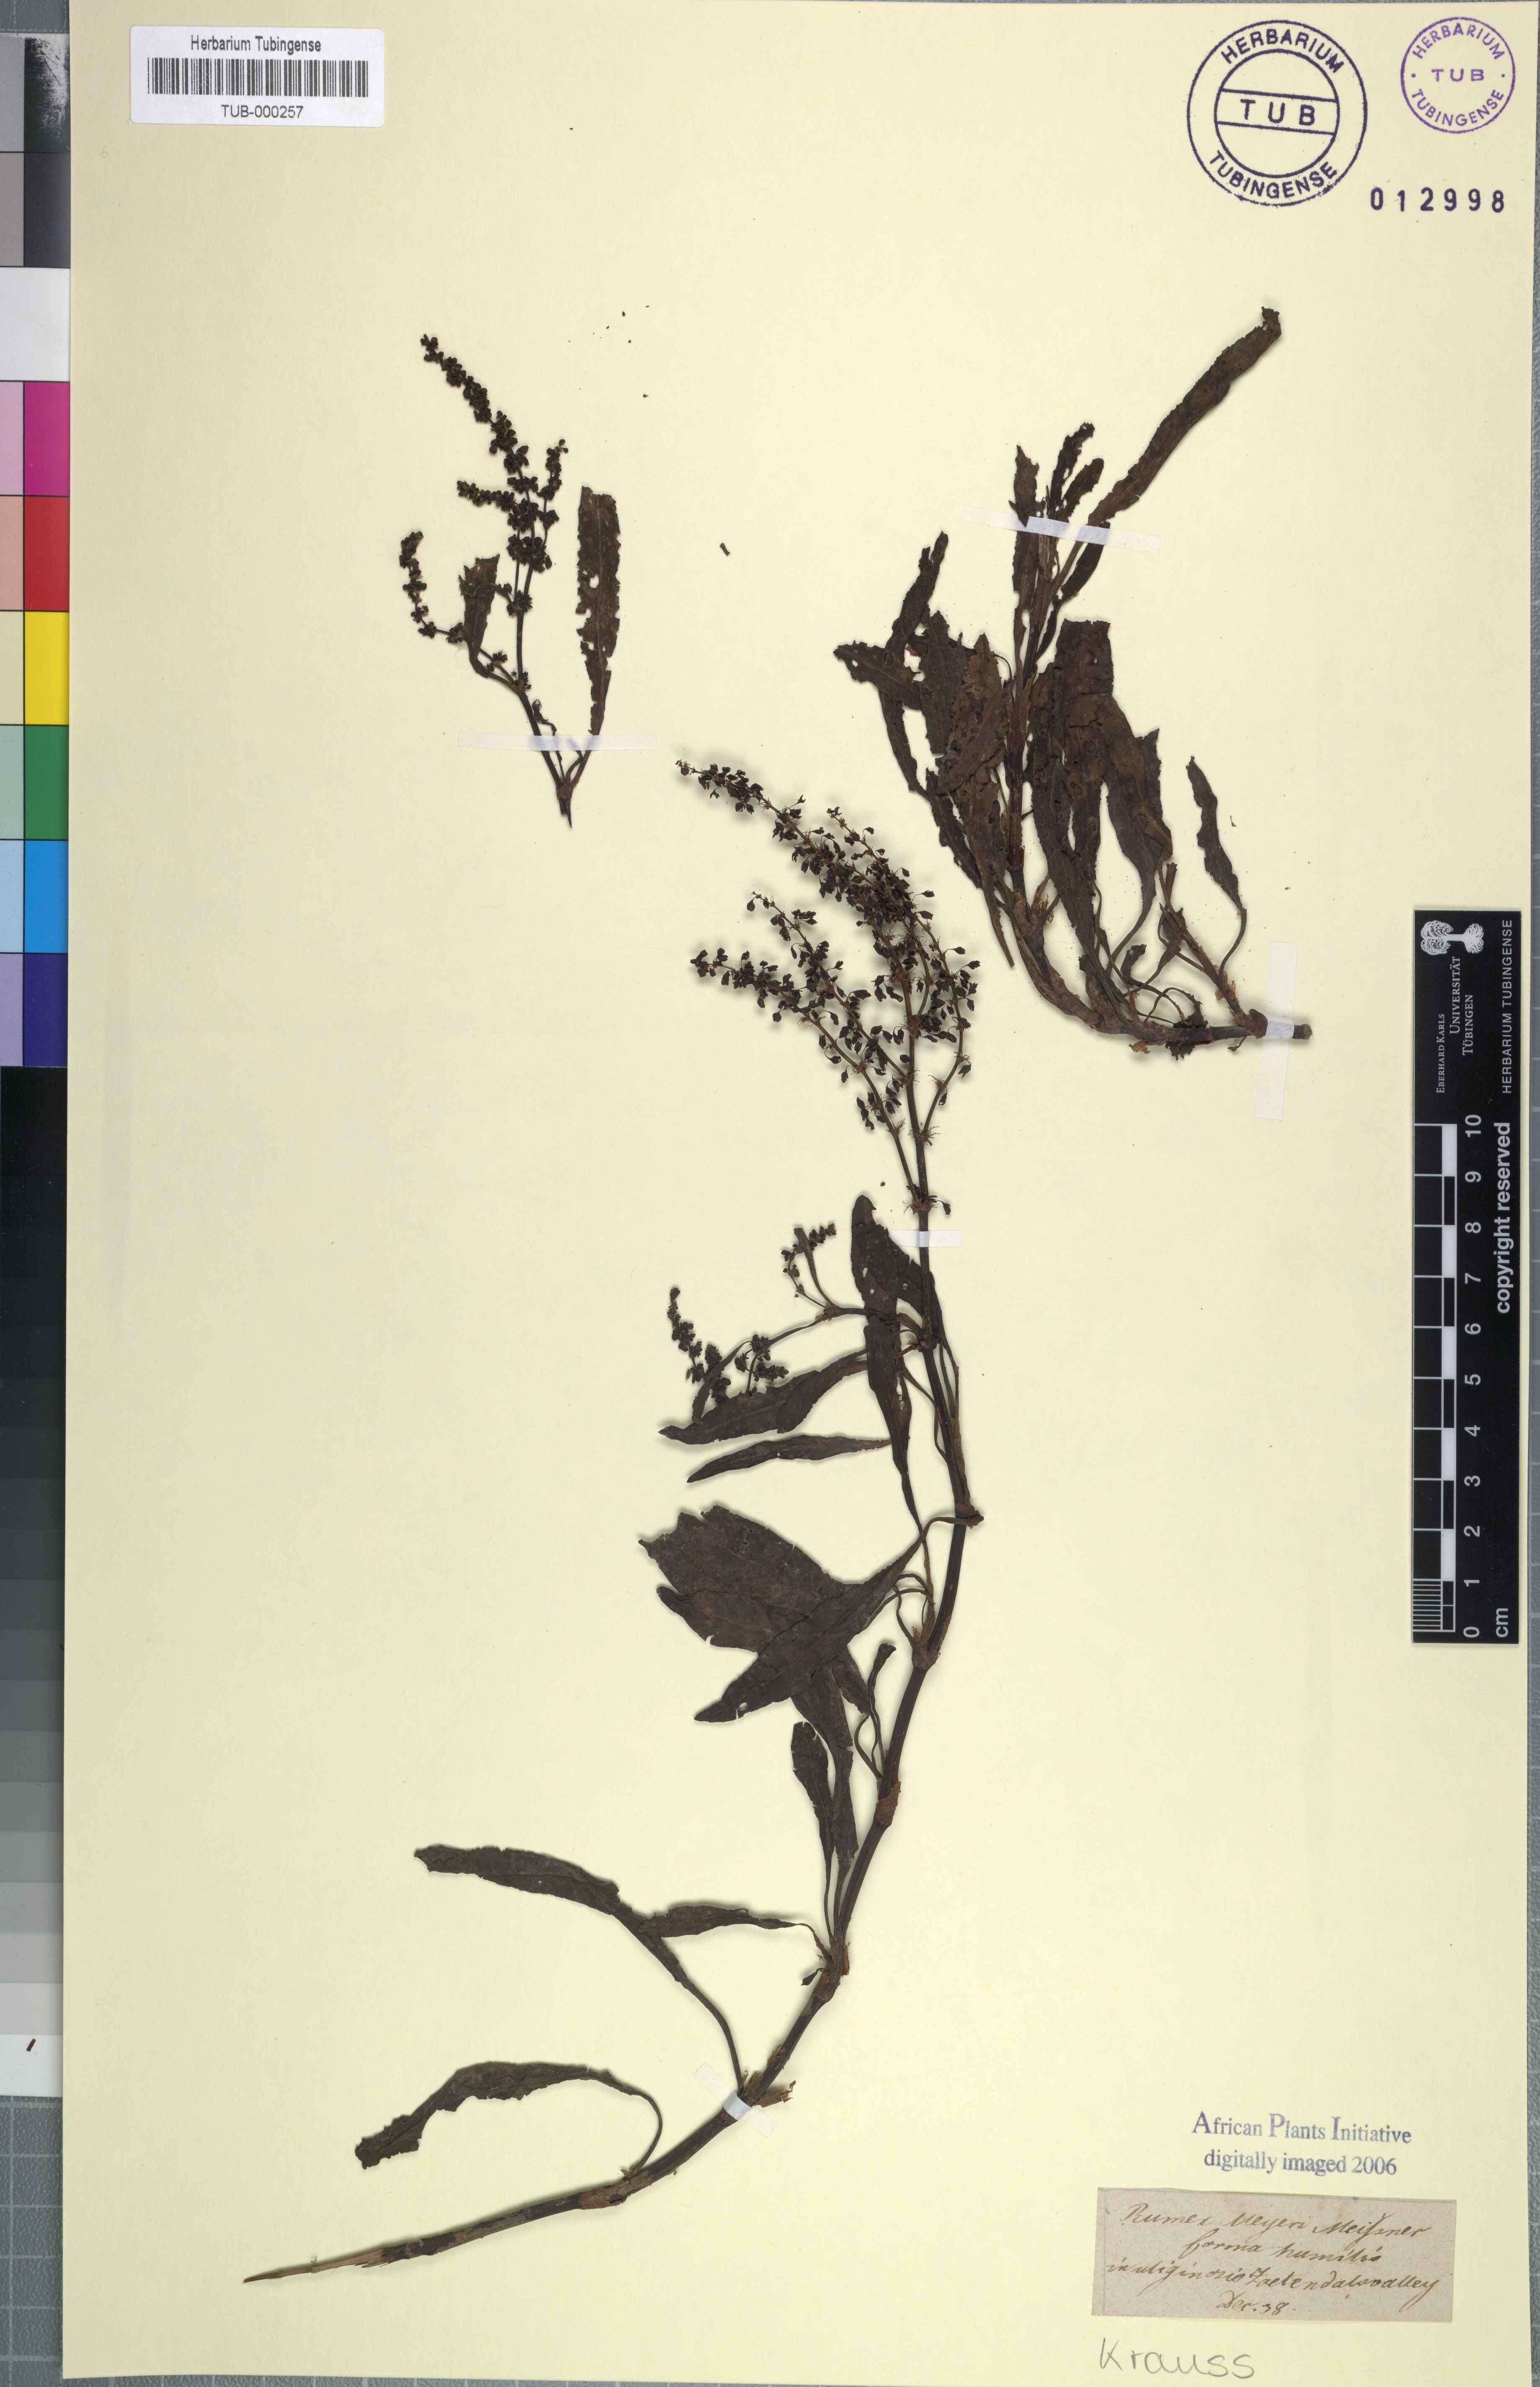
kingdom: Plantae
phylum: Tracheophyta
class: Magnoliopsida
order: Caryophyllales
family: Polygonaceae
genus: Rumex
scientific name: Rumex lanceolatus
